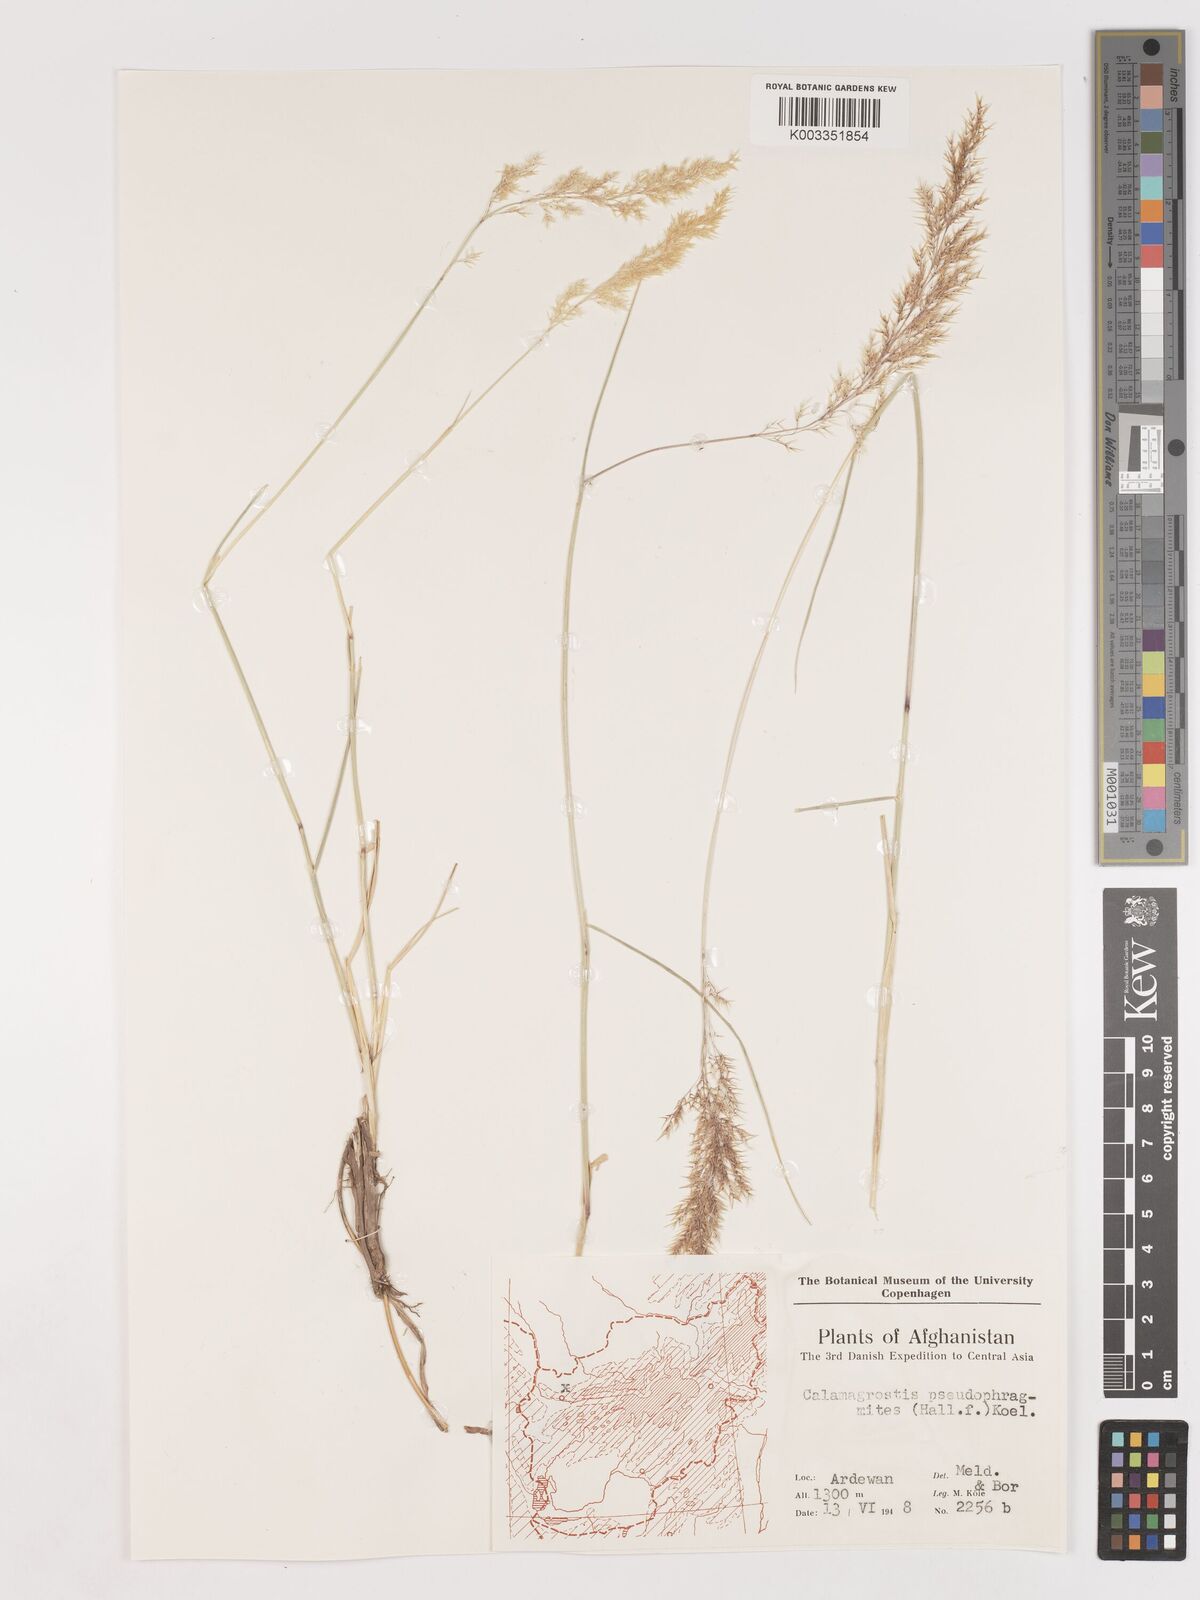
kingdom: Plantae
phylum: Tracheophyta
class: Liliopsida
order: Poales
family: Poaceae
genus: Calamagrostis
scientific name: Calamagrostis purpurea
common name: Scandinavian small-reed
